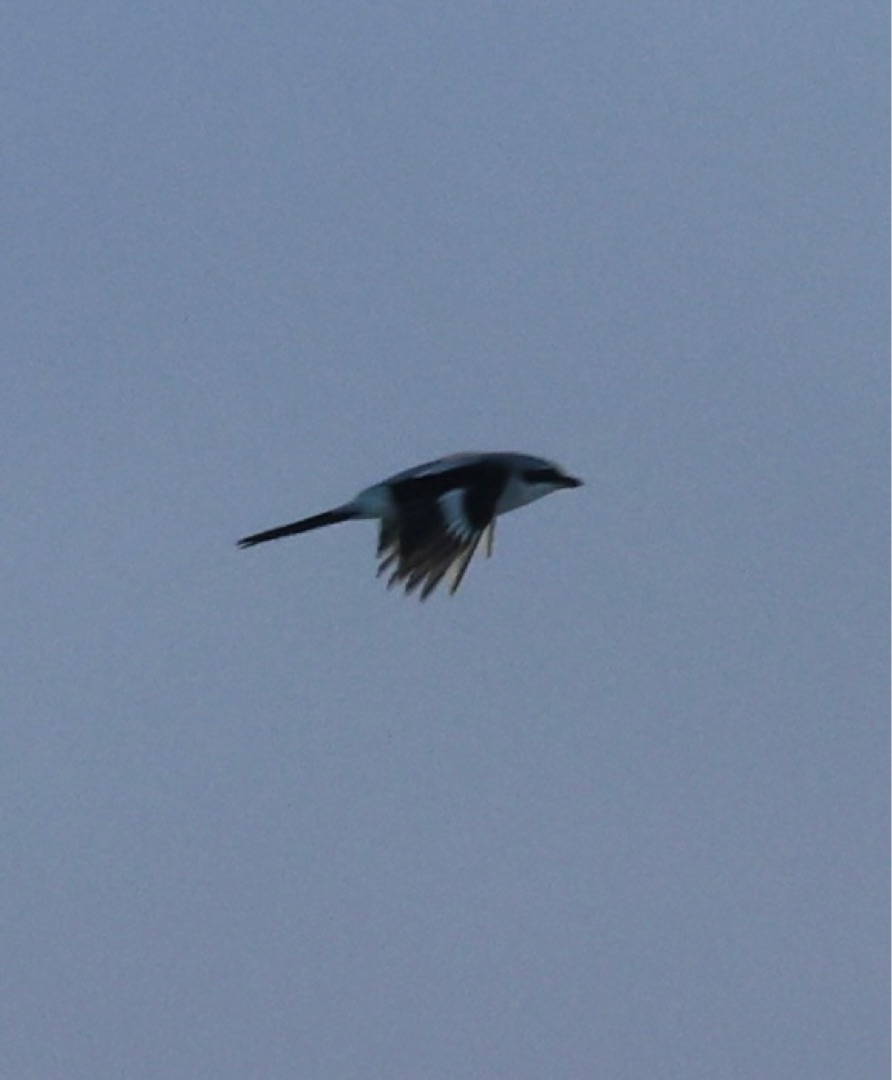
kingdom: Animalia
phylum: Chordata
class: Aves
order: Passeriformes
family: Laniidae
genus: Lanius
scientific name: Lanius excubitor
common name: Stor tornskade
